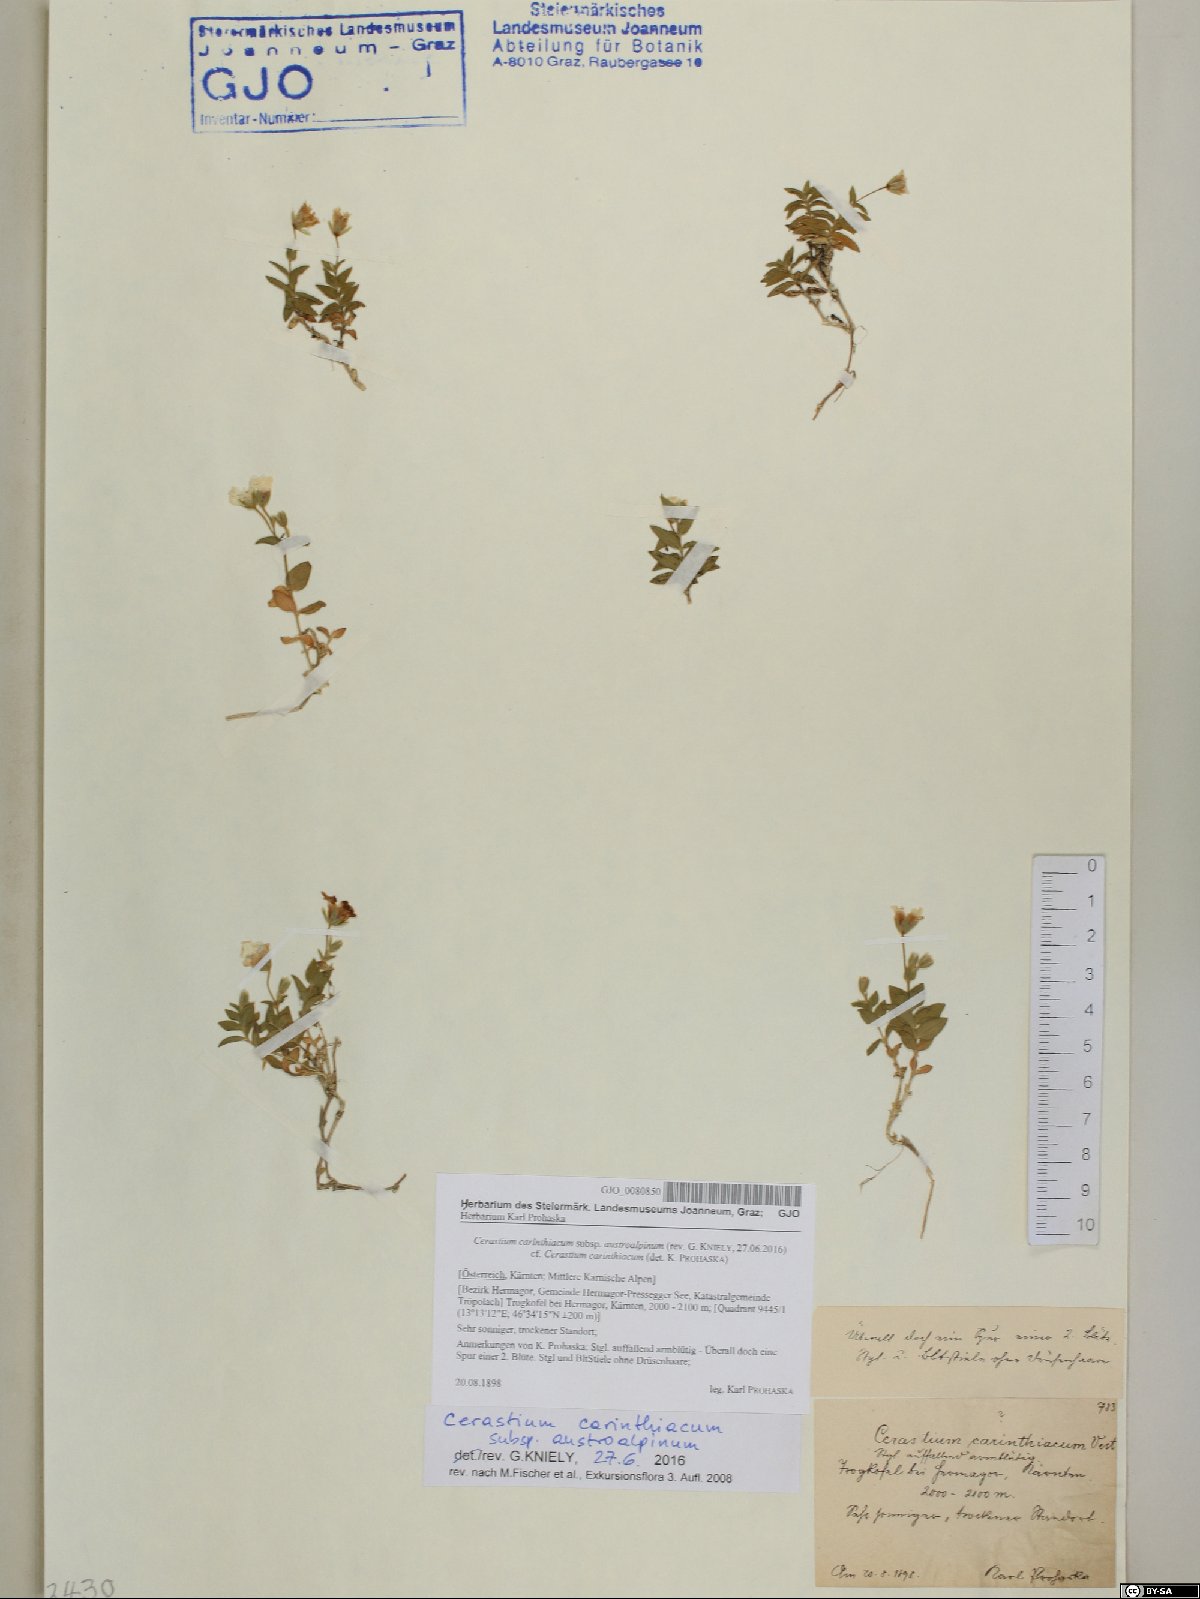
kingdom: Plantae
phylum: Tracheophyta
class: Magnoliopsida
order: Caryophyllales
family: Caryophyllaceae
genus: Cerastium
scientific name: Cerastium carinthiacum
